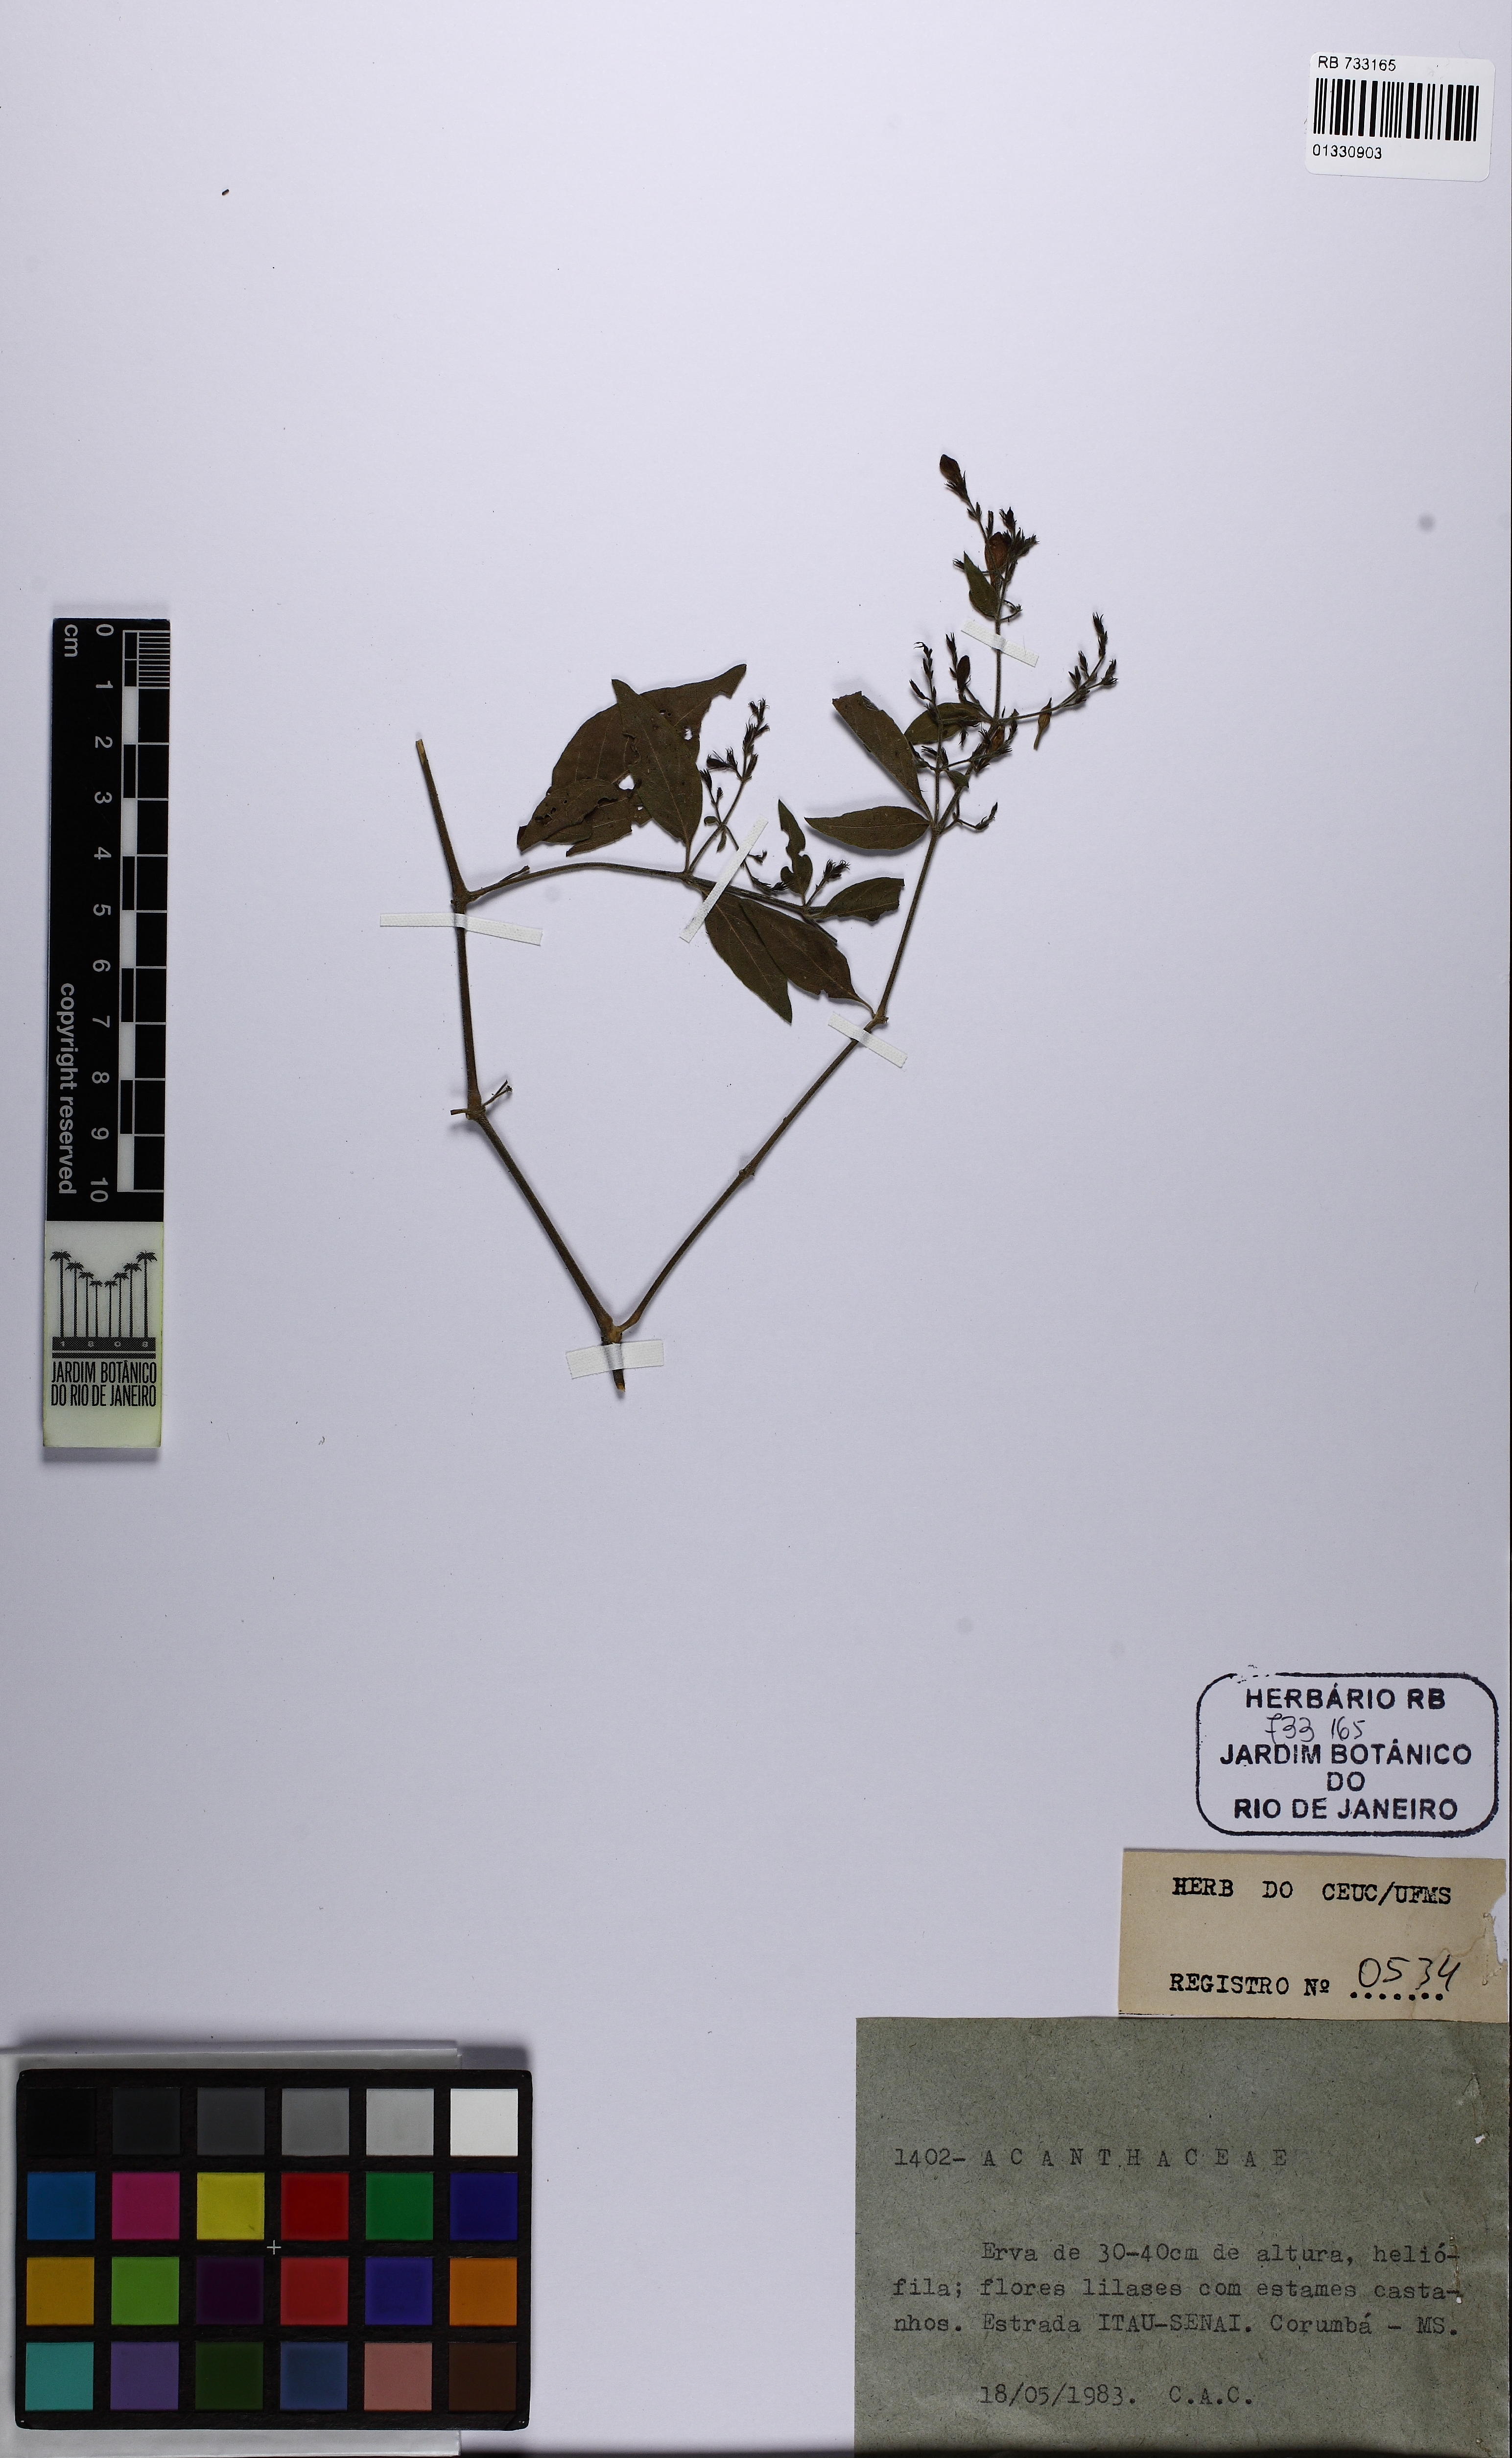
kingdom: Plantae
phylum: Tracheophyta
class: Magnoliopsida
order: Lamiales
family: Acanthaceae
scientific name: Acanthaceae
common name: Acanthaceae
